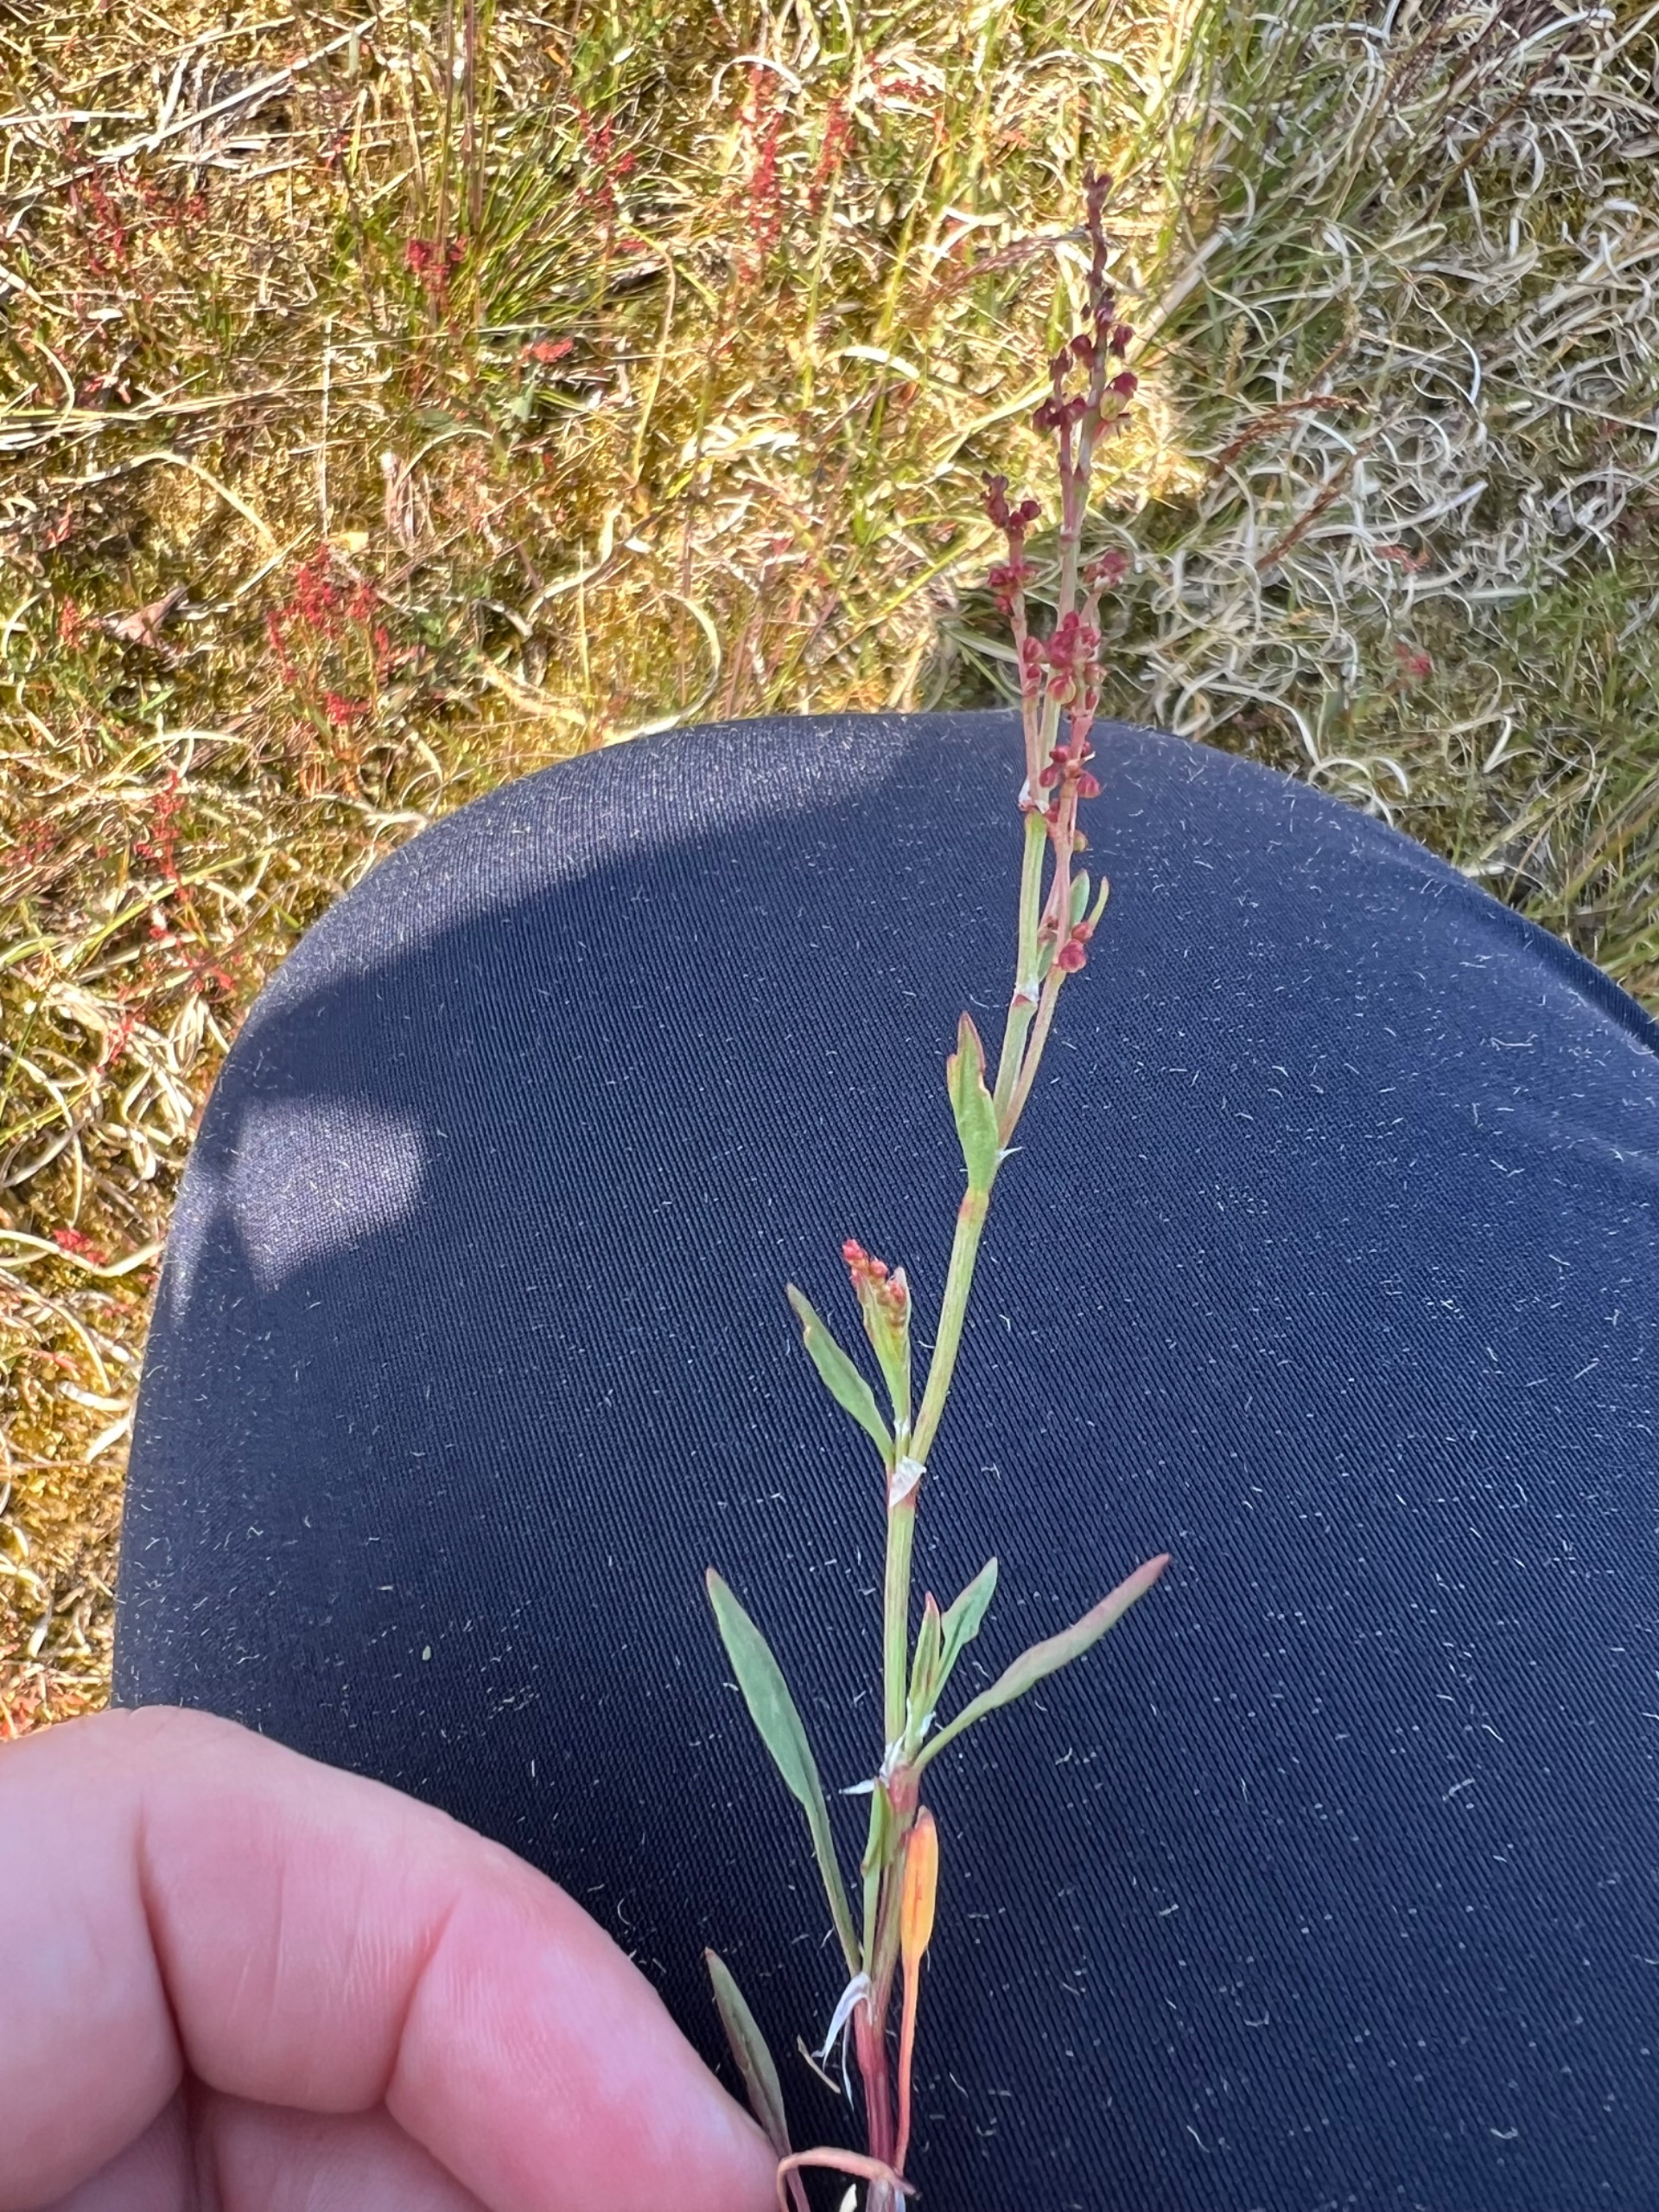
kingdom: Plantae
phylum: Tracheophyta
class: Magnoliopsida
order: Caryophyllales
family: Polygonaceae
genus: Rumex
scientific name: Rumex acetosella
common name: Rødknæ
